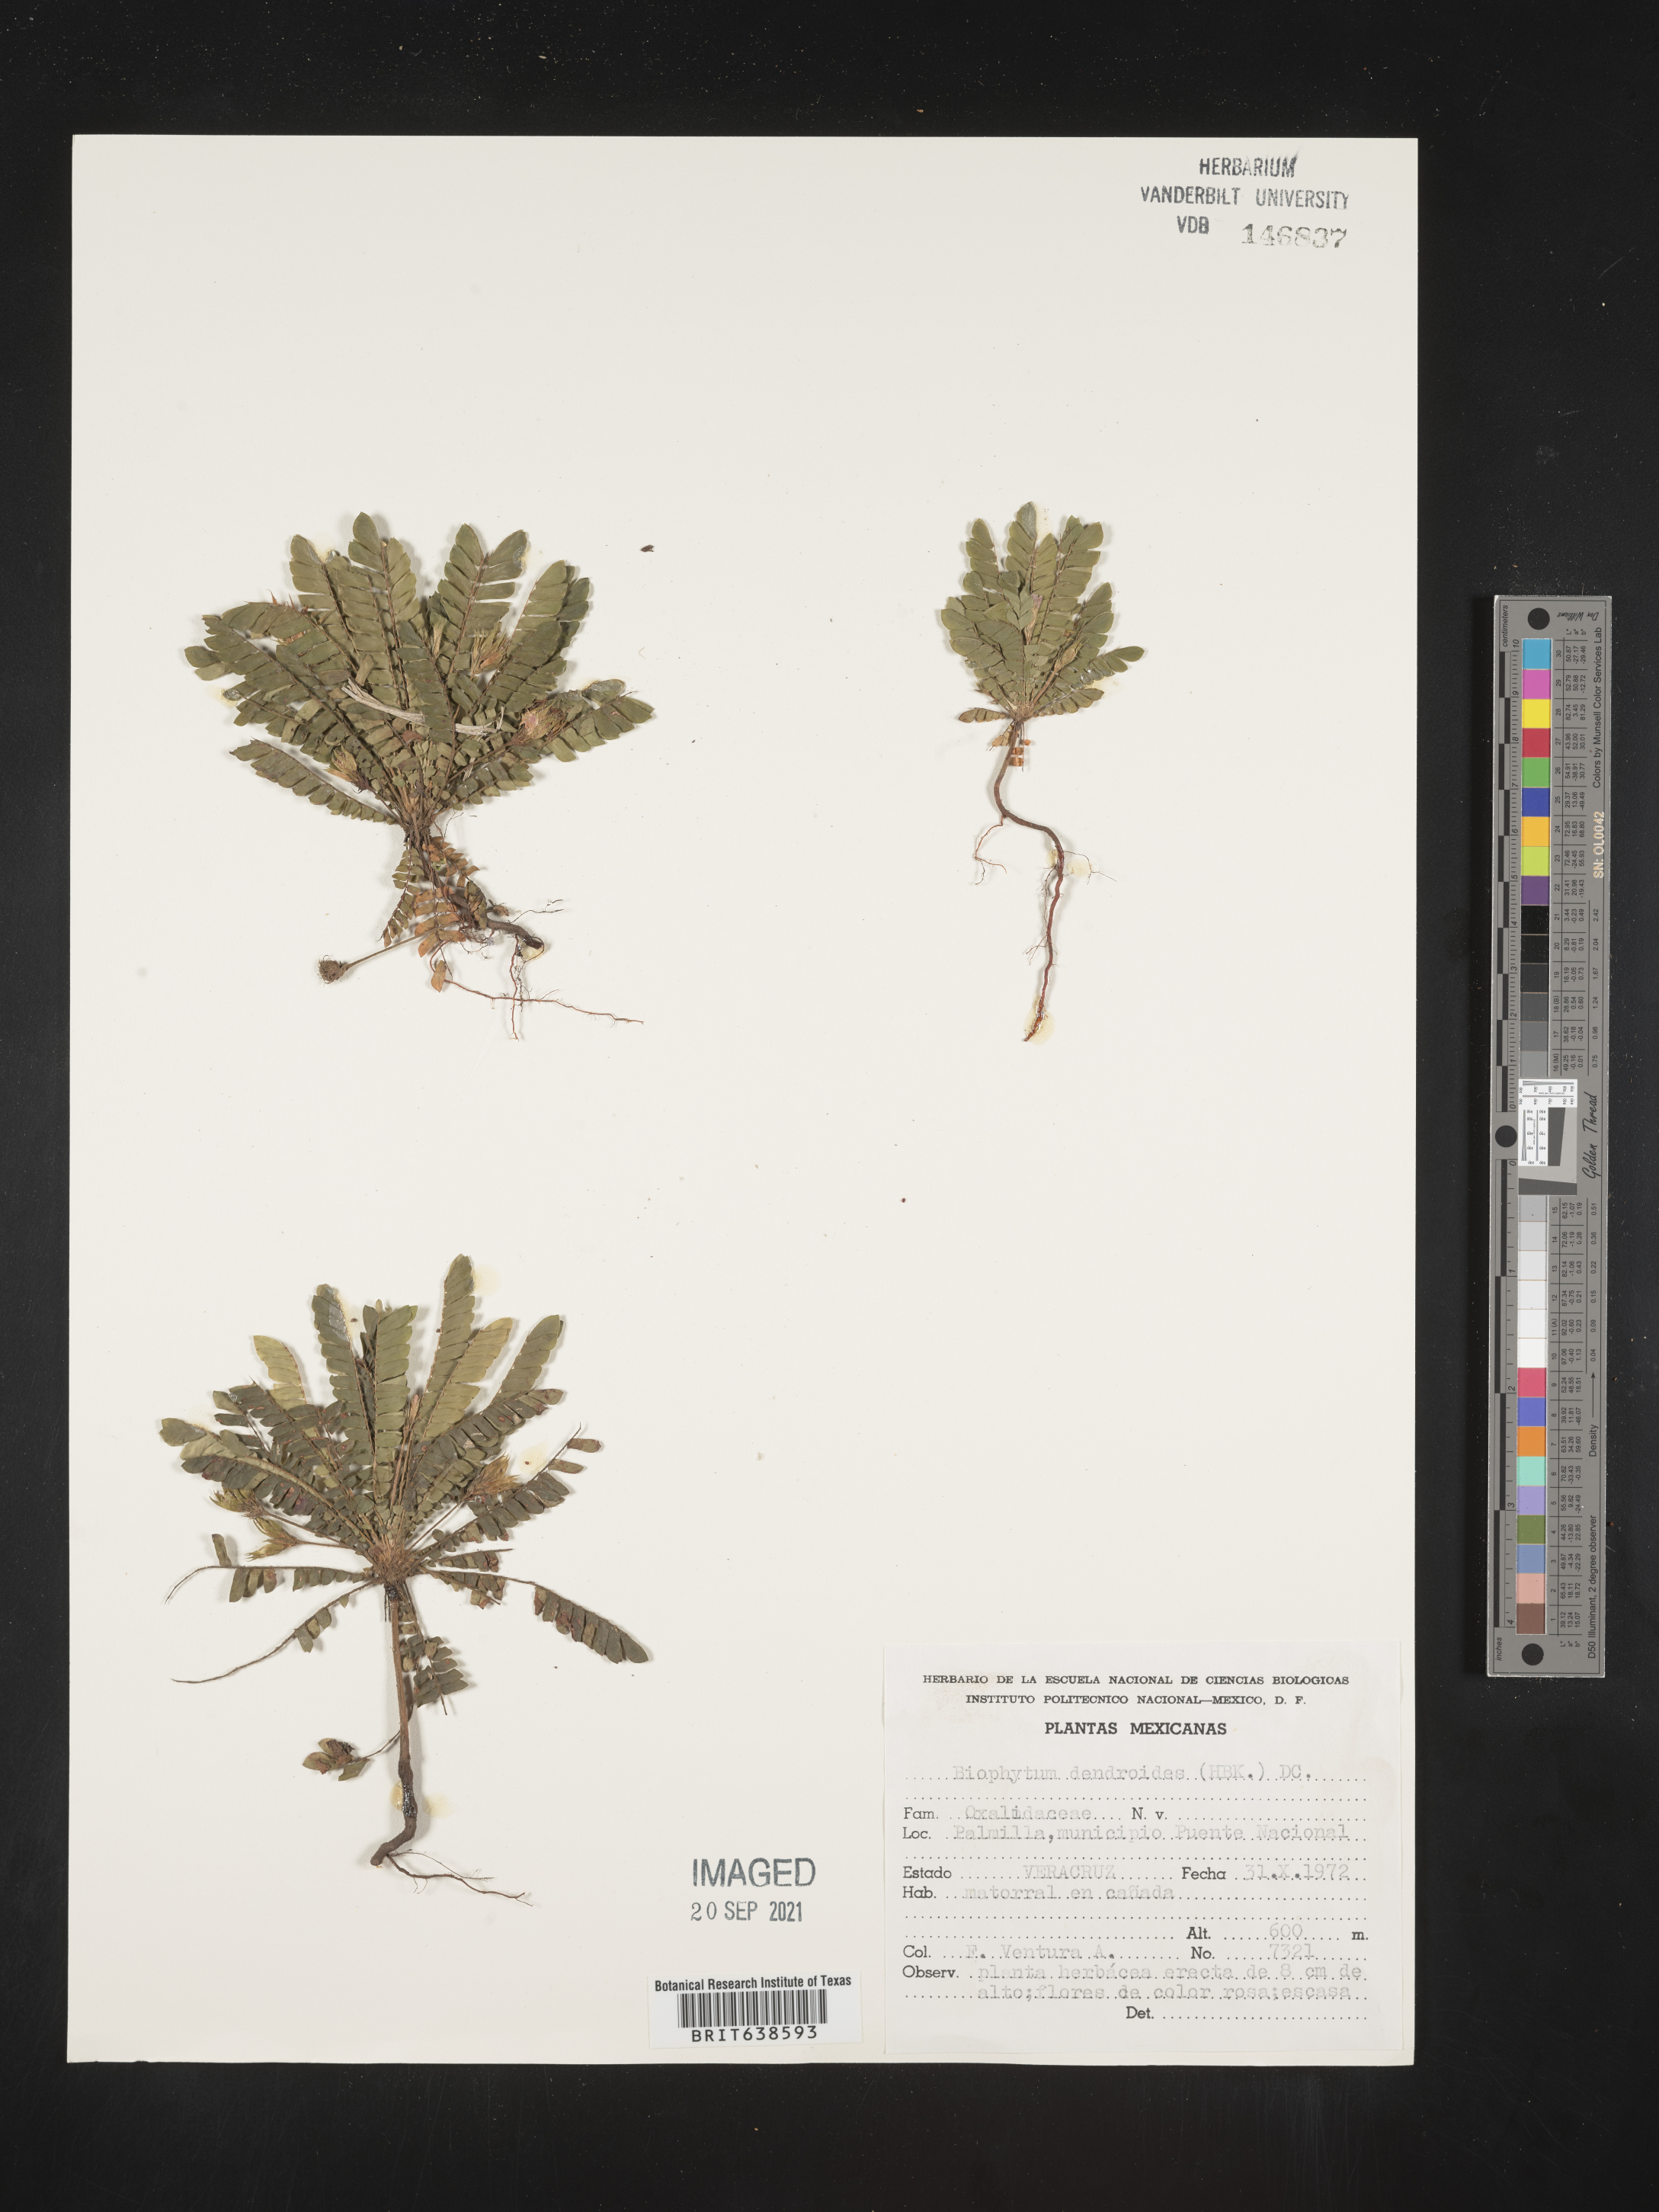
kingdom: Plantae
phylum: Tracheophyta
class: Magnoliopsida
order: Oxalidales
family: Oxalidaceae
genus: Biophytum
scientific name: Biophytum dendroides
